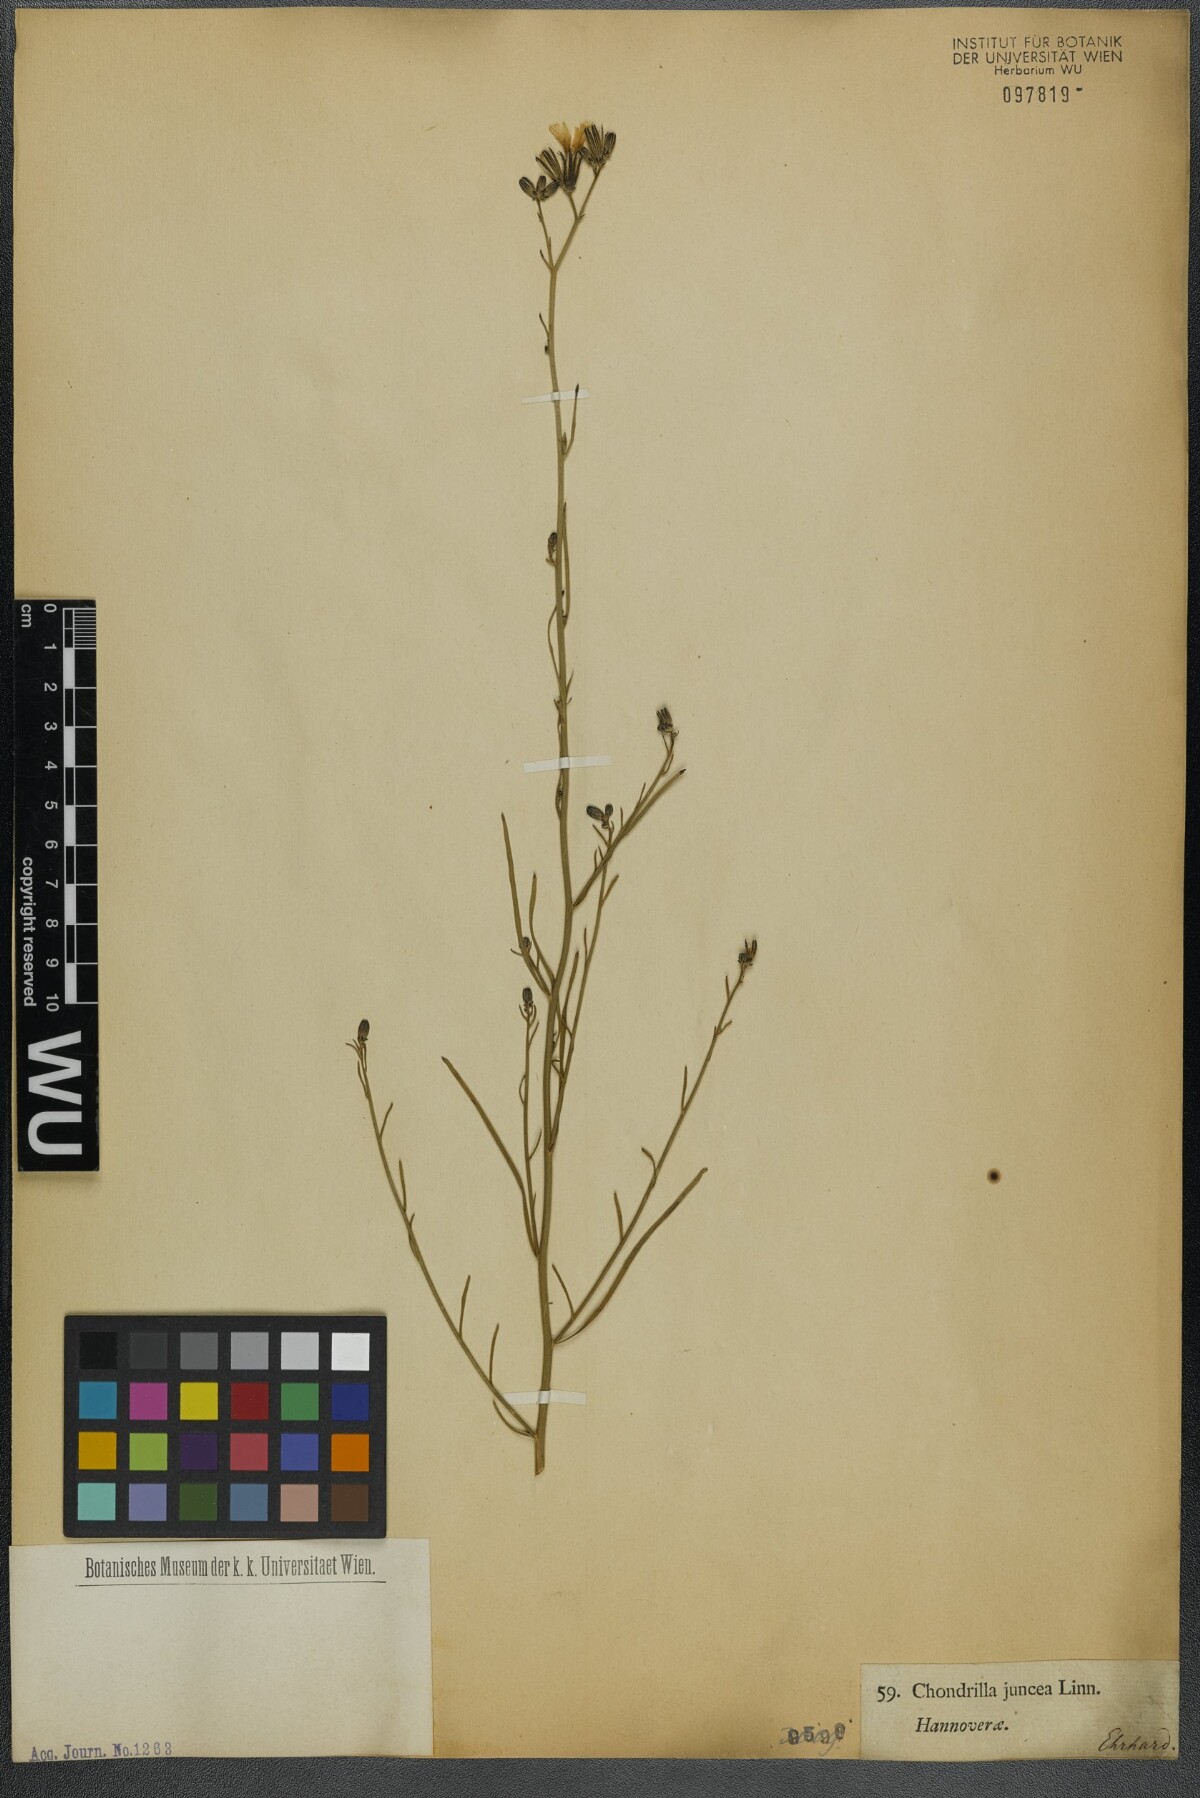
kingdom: Plantae
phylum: Tracheophyta
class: Magnoliopsida
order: Asterales
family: Asteraceae
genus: Chondrilla
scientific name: Chondrilla juncea
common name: Skeleton weed
